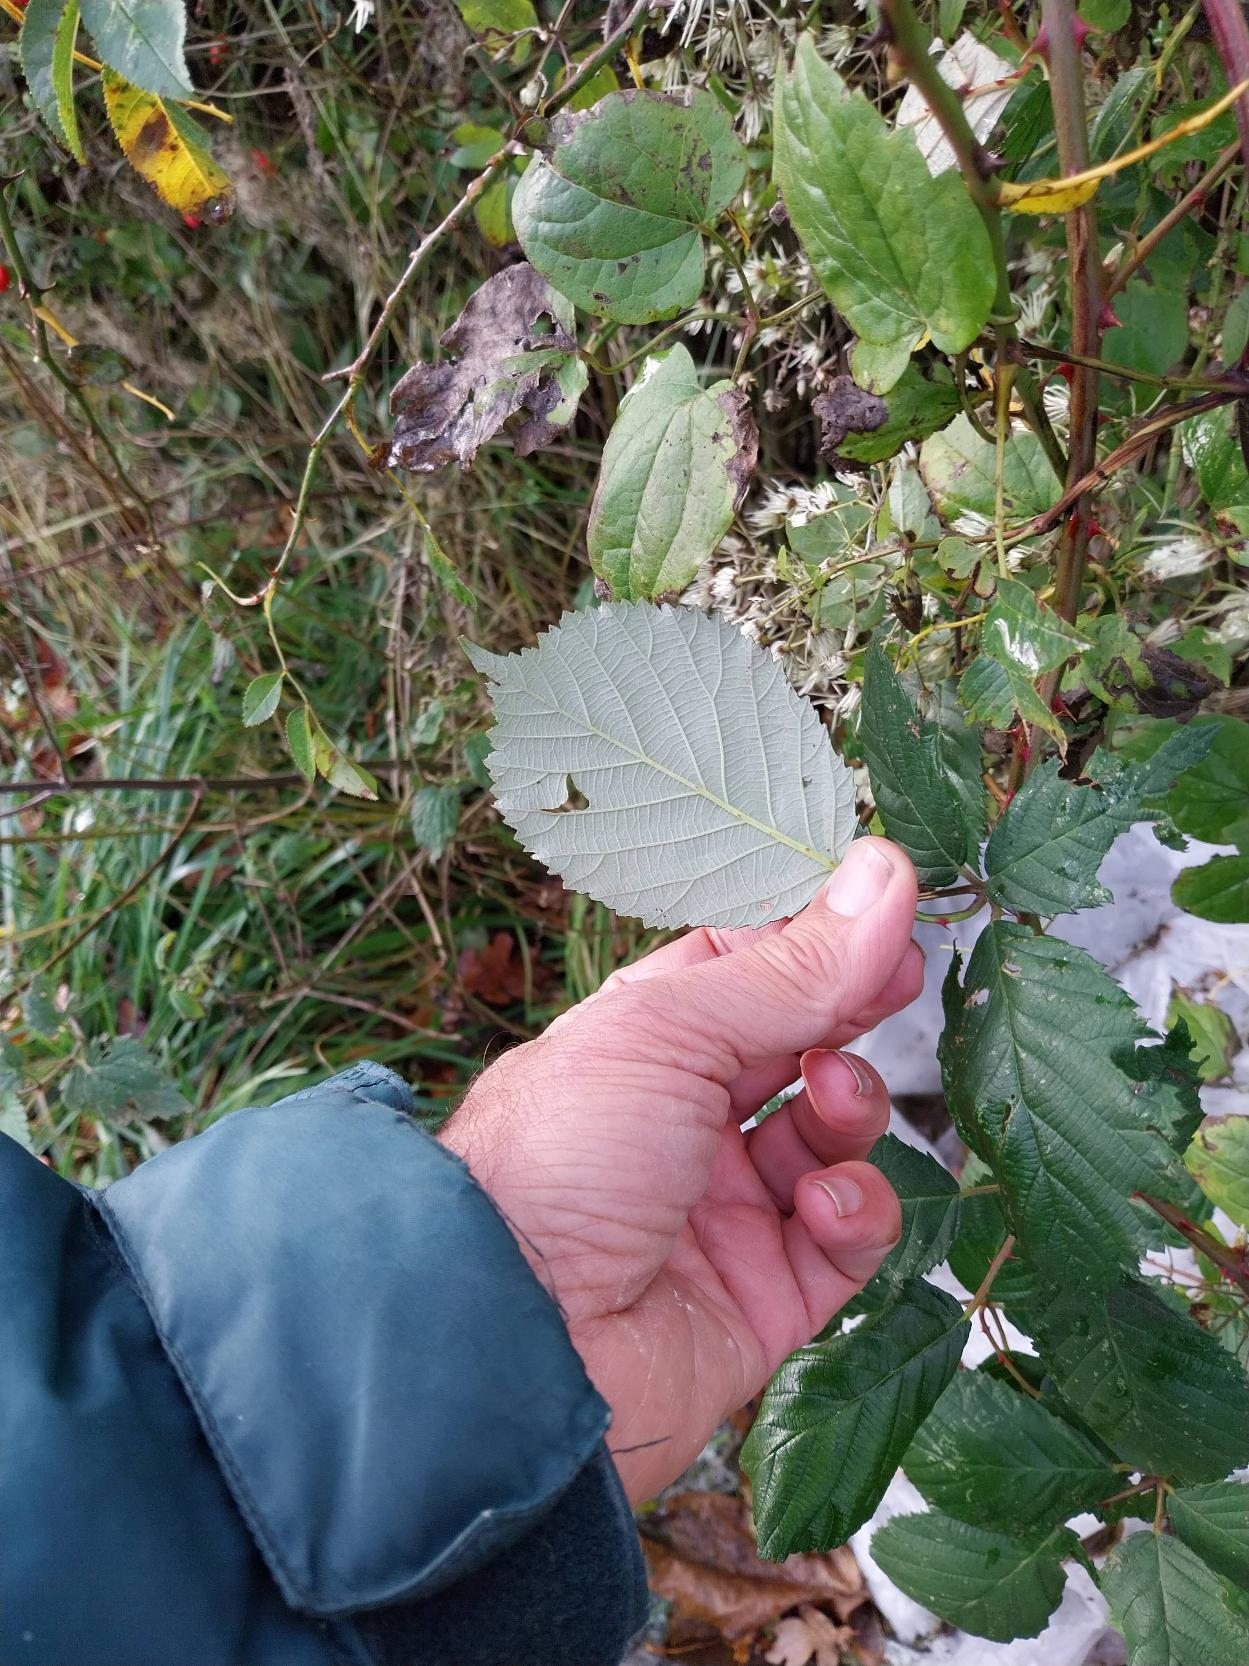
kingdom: Plantae
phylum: Tracheophyta
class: Magnoliopsida
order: Rosales
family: Rosaceae
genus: Rubus
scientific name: Rubus armeniacus
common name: Armensk brombær
